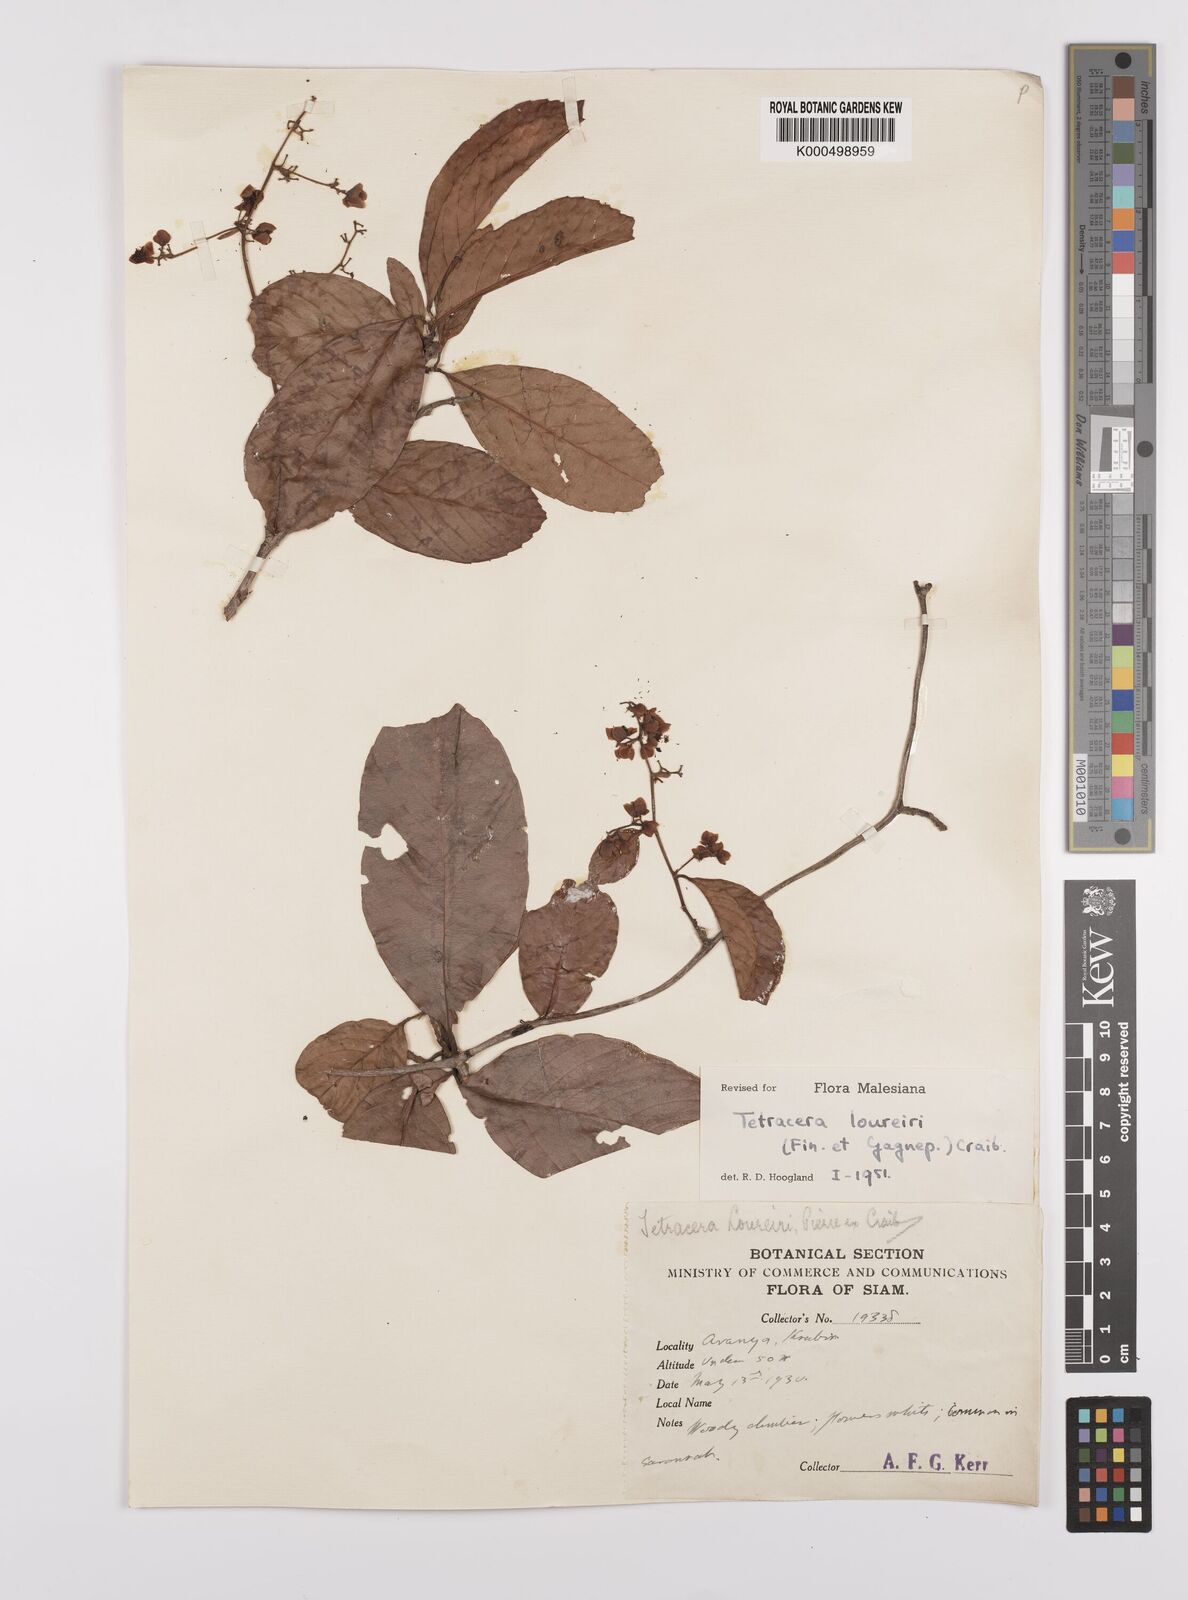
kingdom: Plantae
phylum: Tracheophyta
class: Magnoliopsida
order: Dilleniales
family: Dilleniaceae
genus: Tetracera
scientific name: Tetracera scandens
